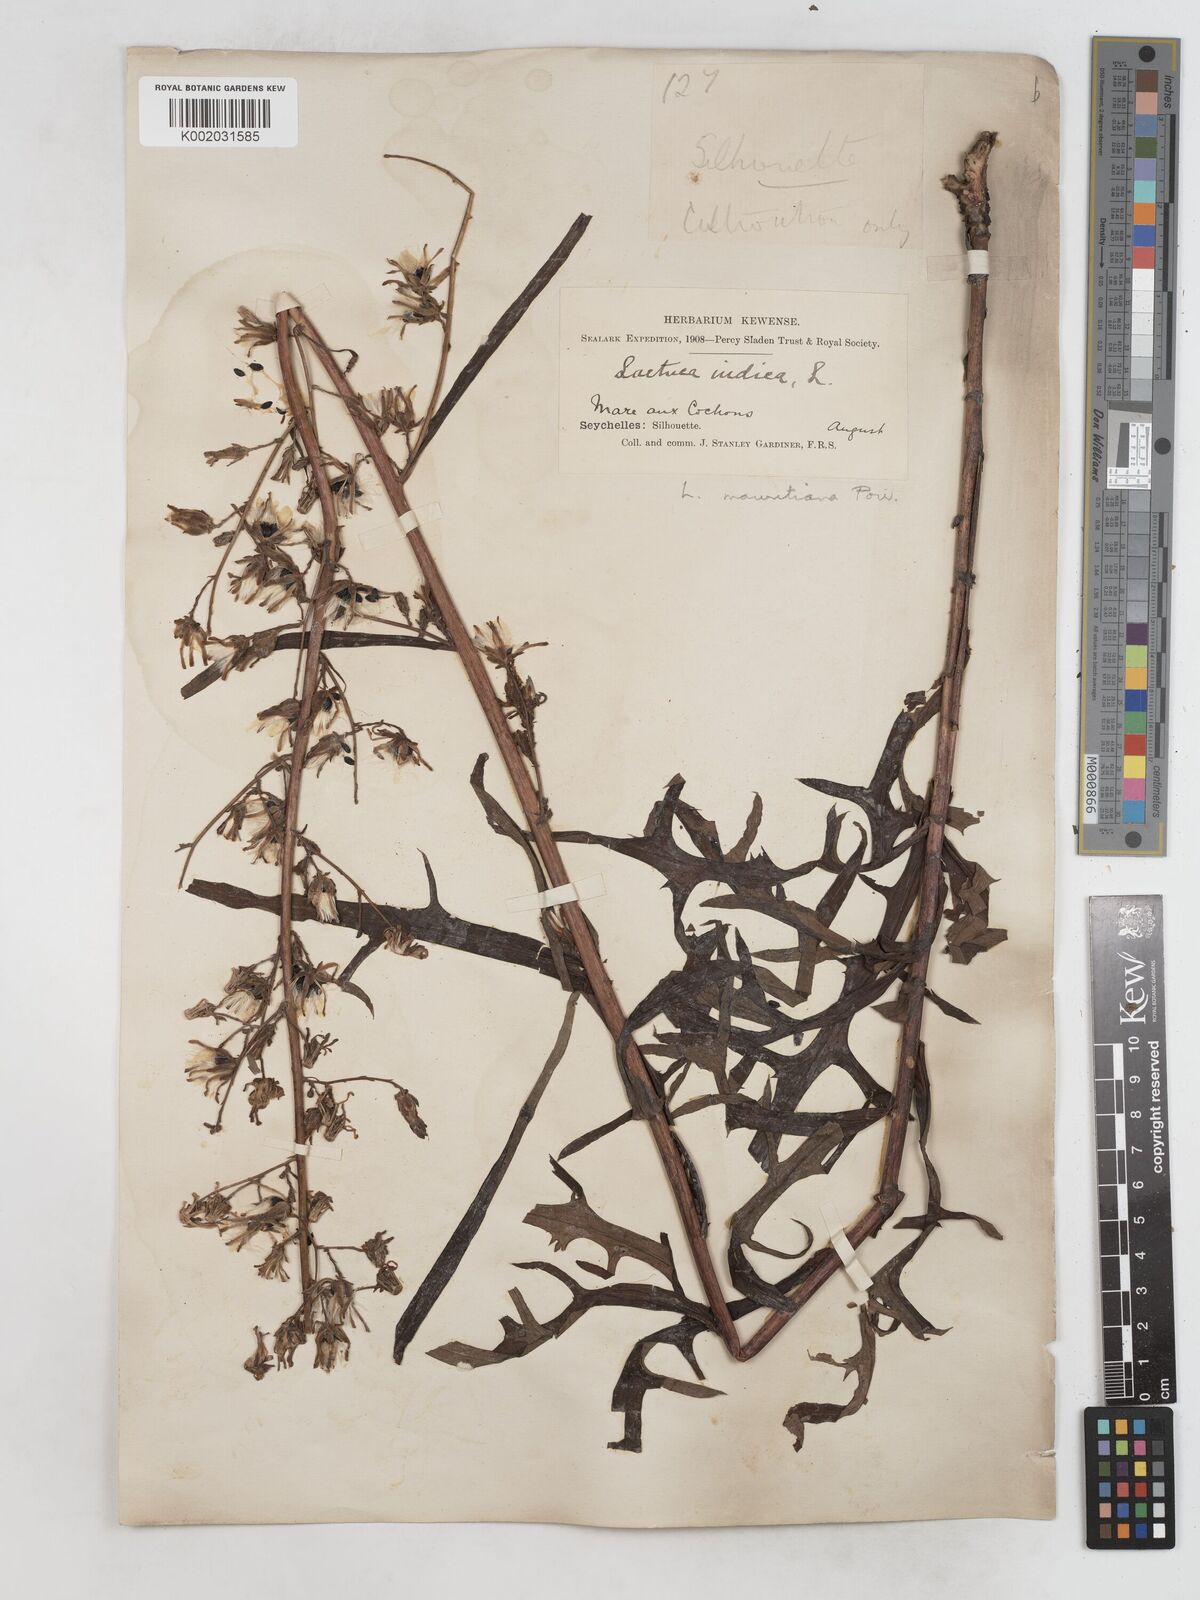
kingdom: Plantae
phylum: Tracheophyta
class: Magnoliopsida
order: Asterales
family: Asteraceae
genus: Lactuca
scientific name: Lactuca indica
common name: Wild lettuce
